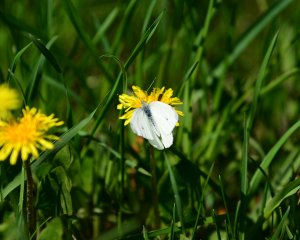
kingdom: Animalia
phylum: Arthropoda
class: Insecta
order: Lepidoptera
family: Pieridae
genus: Pieris
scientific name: Pieris rapae
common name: Cabbage White
